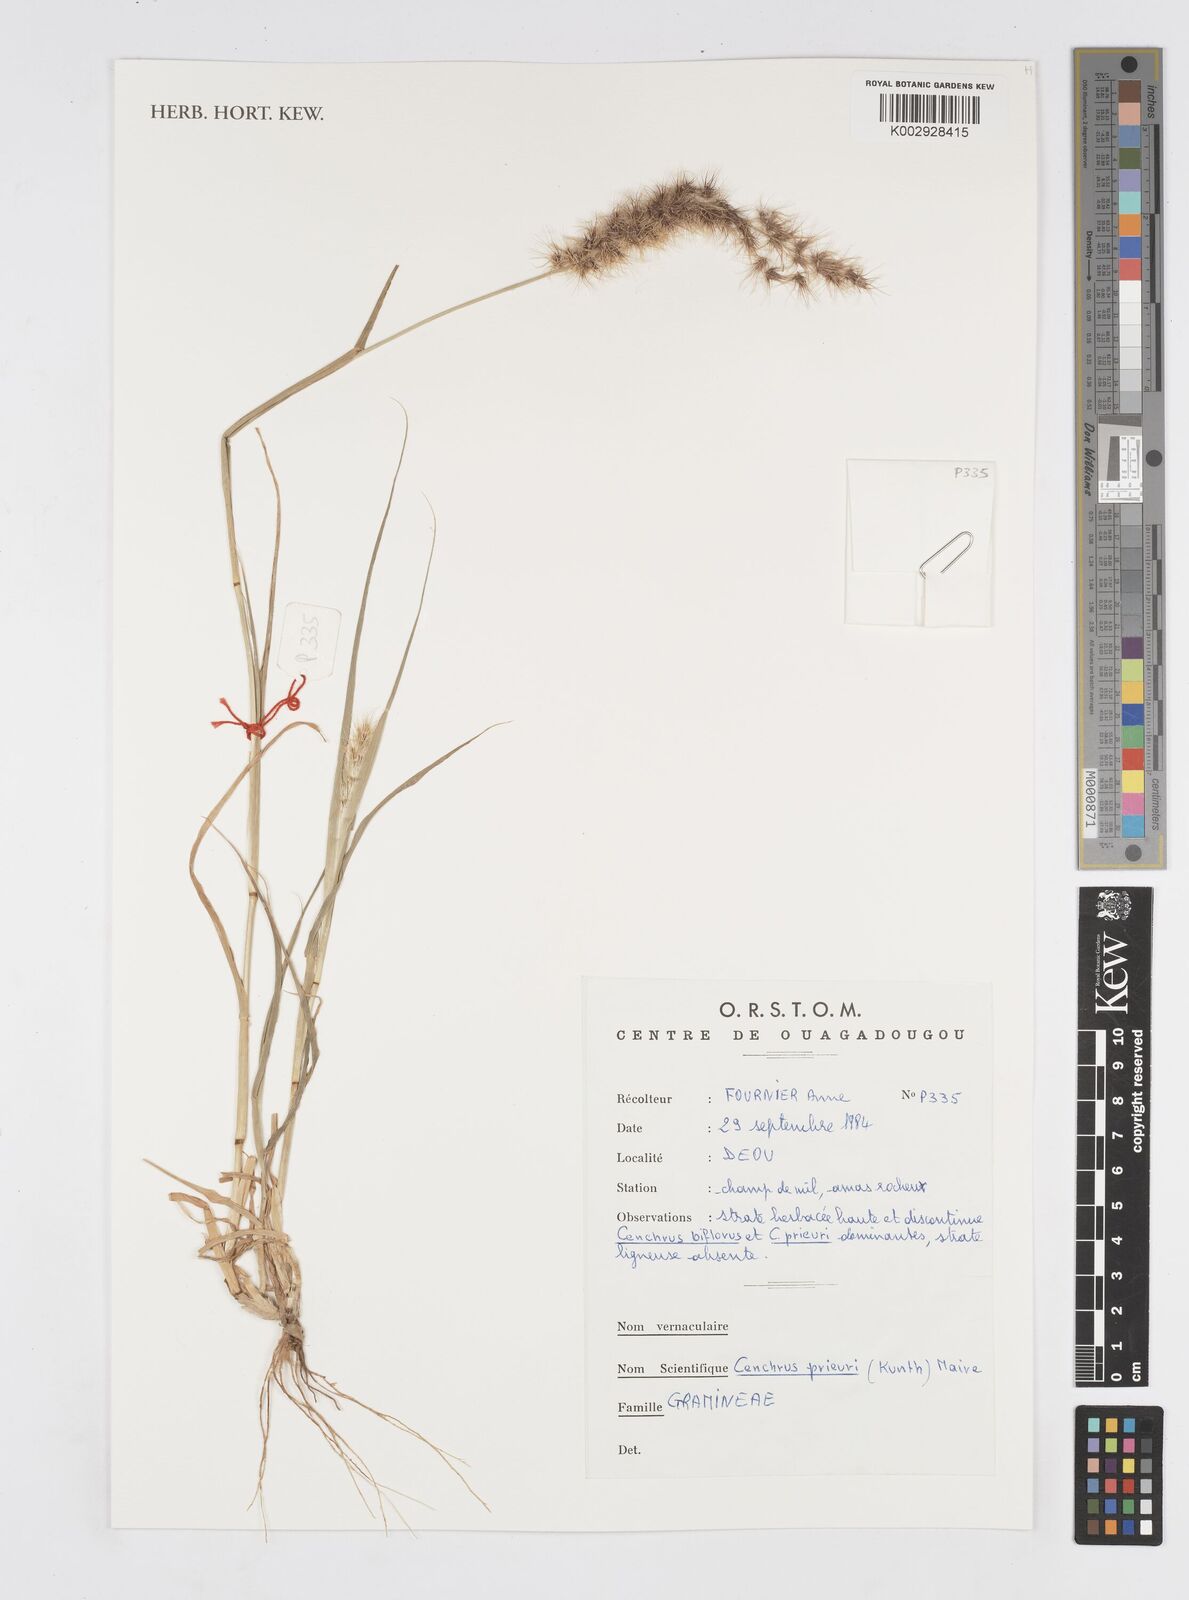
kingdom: Plantae
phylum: Tracheophyta
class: Liliopsida
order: Poales
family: Poaceae
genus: Cenchrus
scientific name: Cenchrus prieurii
